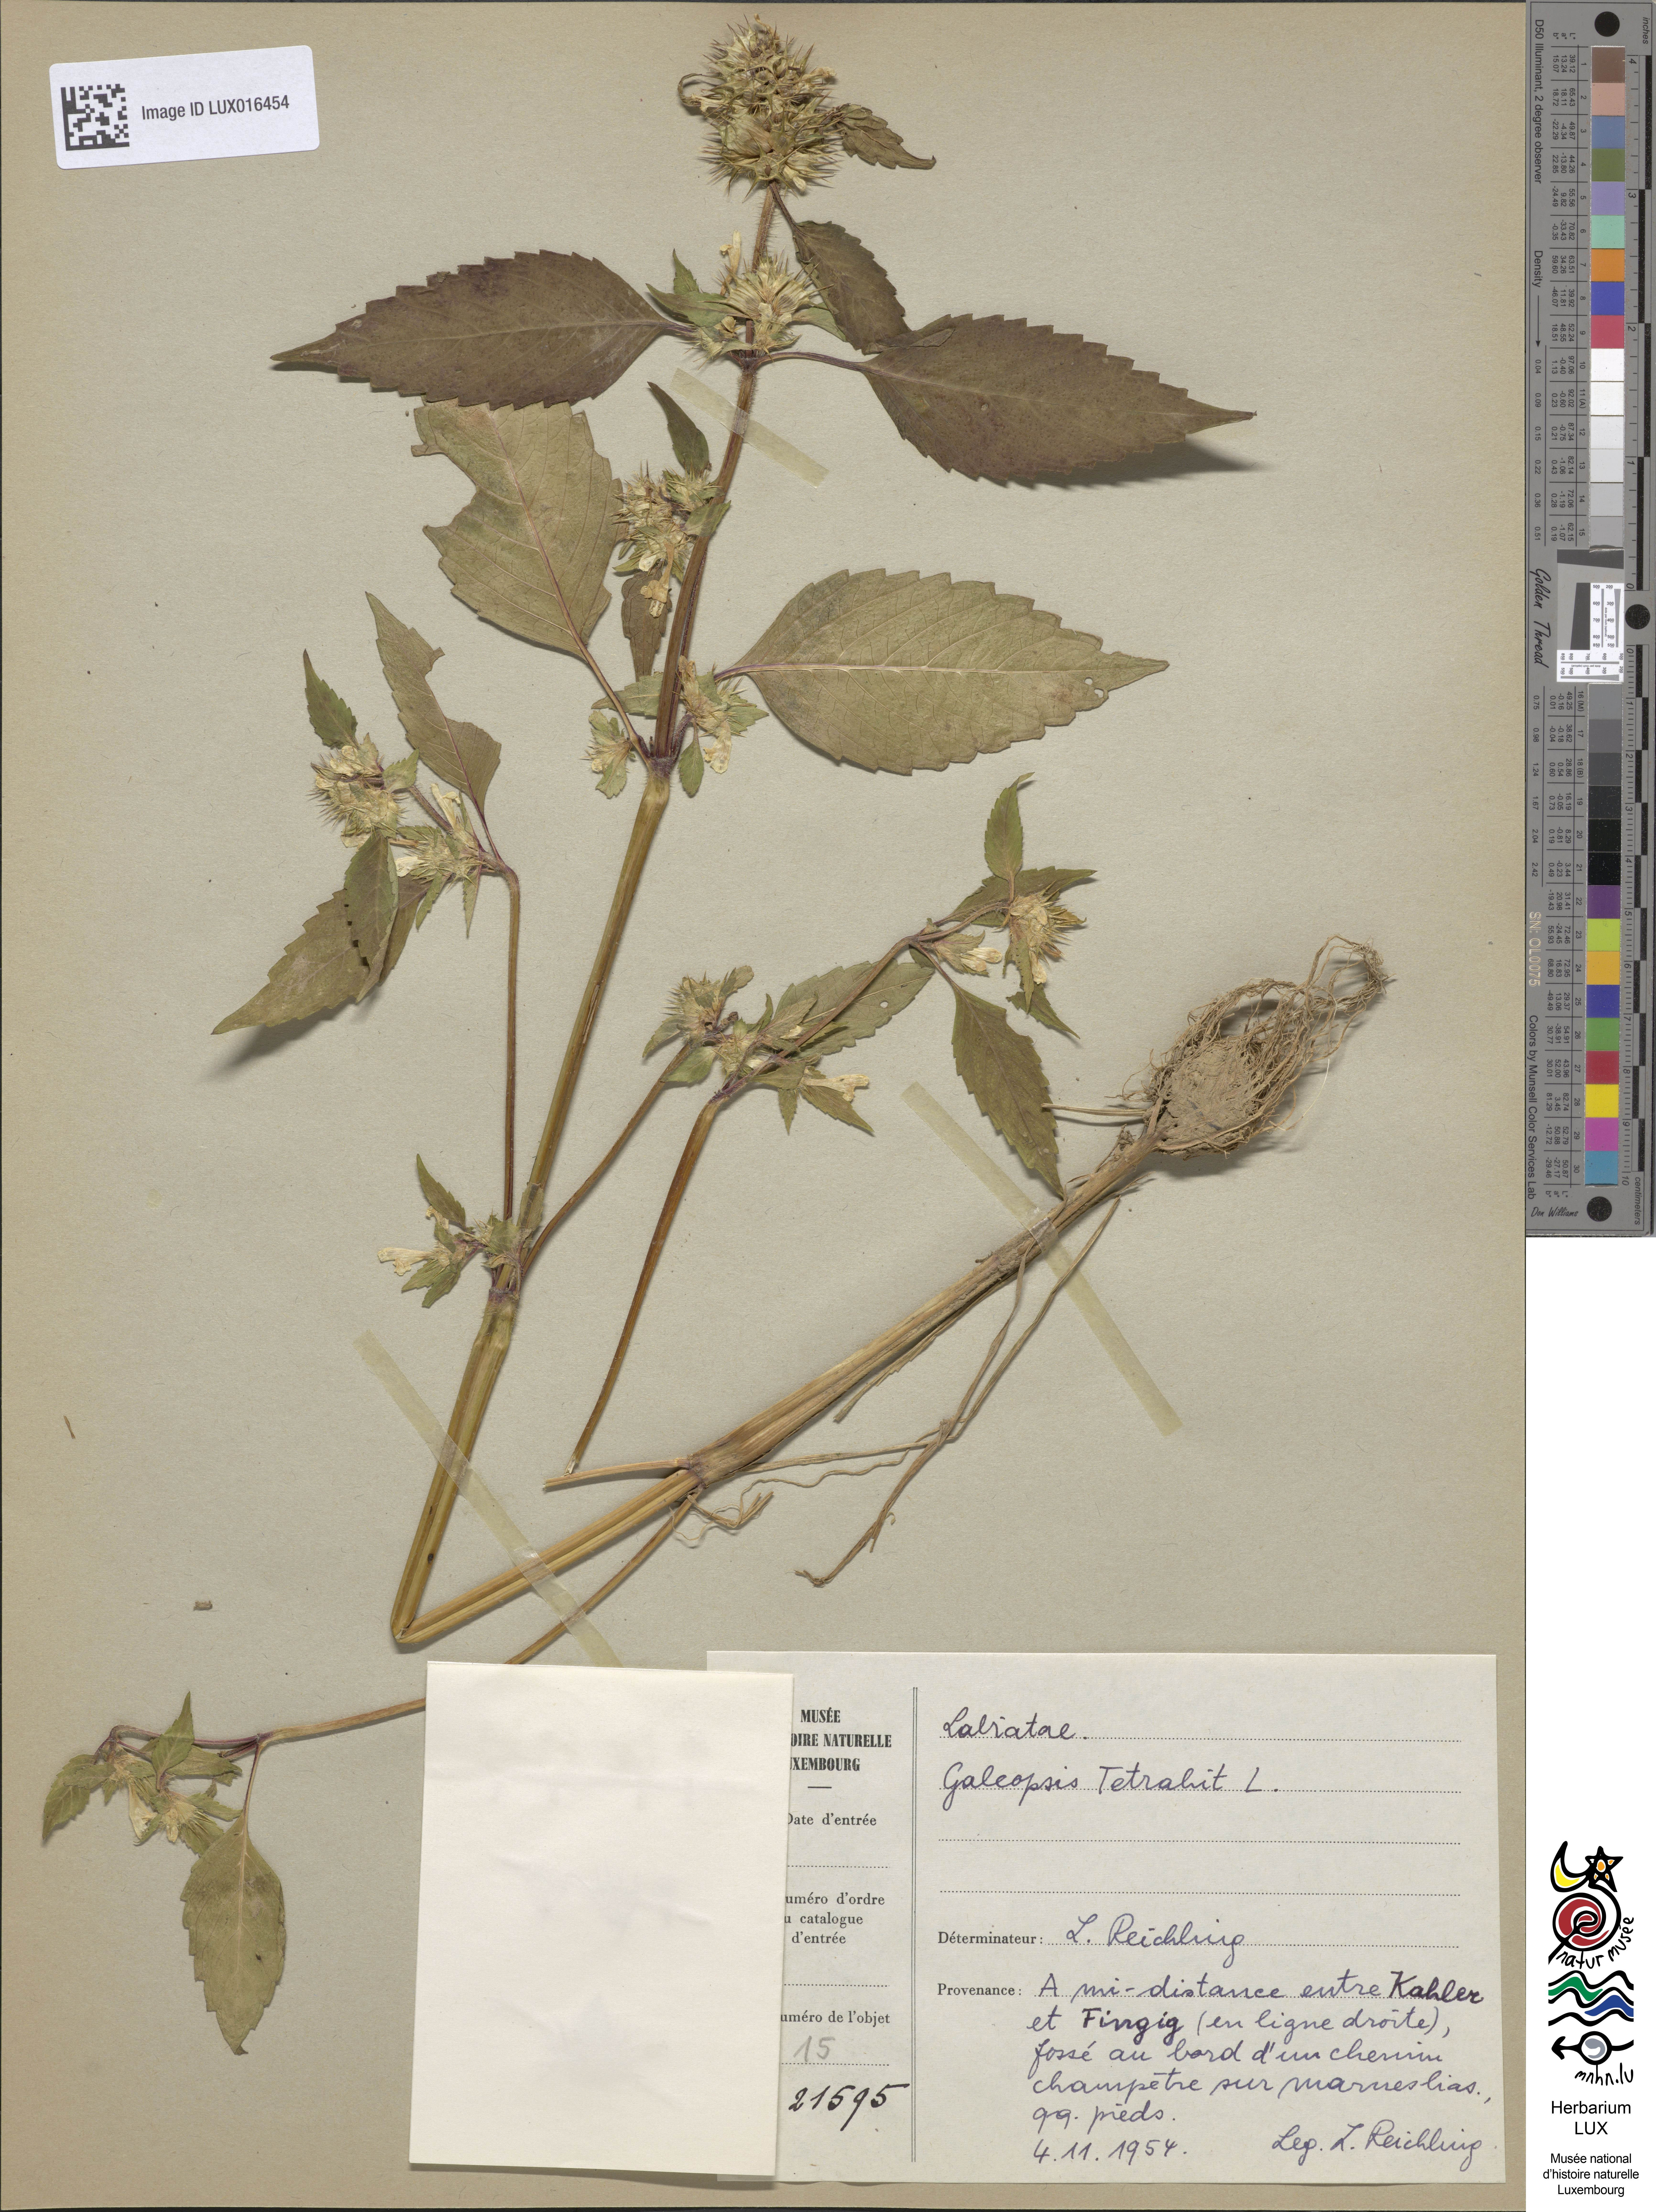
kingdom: Plantae
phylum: Tracheophyta
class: Magnoliopsida
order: Lamiales
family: Lamiaceae
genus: Galeopsis
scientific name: Galeopsis tetrahit
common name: Common hemp-nettle
